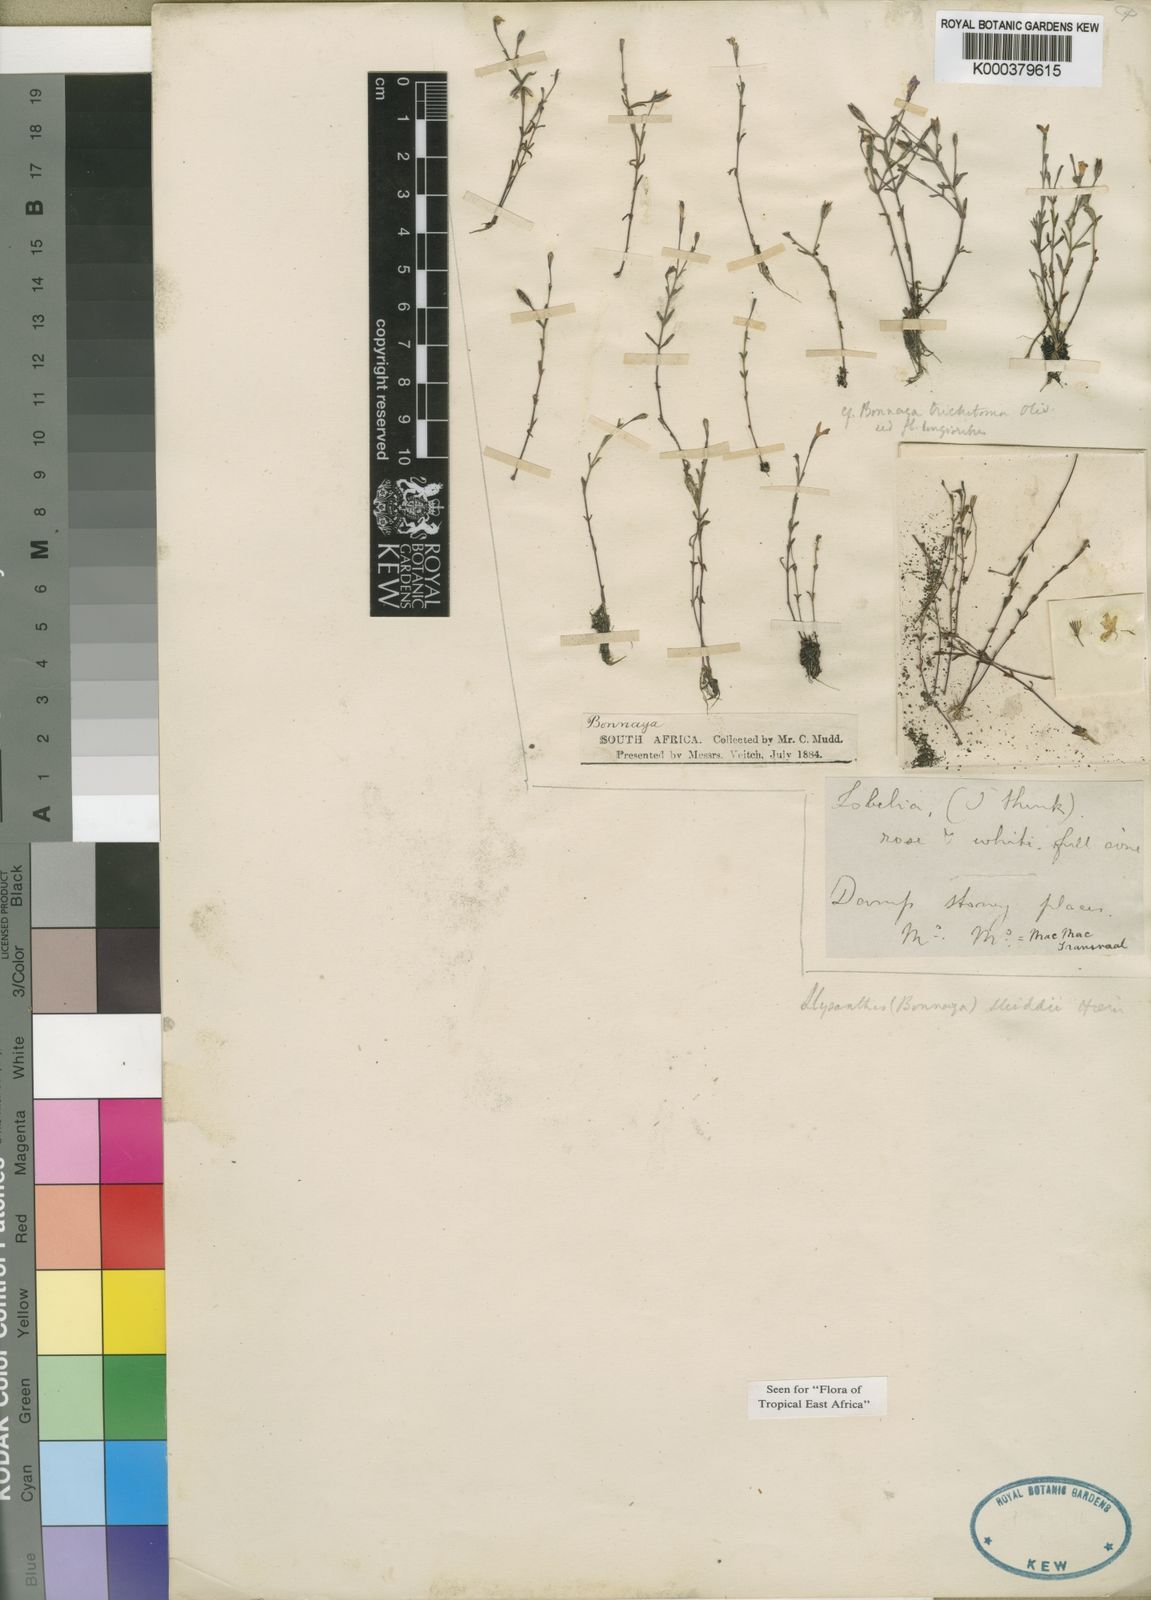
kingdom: Plantae
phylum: Tracheophyta
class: Magnoliopsida
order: Lamiales
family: Linderniaceae
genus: Lindernia
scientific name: Lindernia
